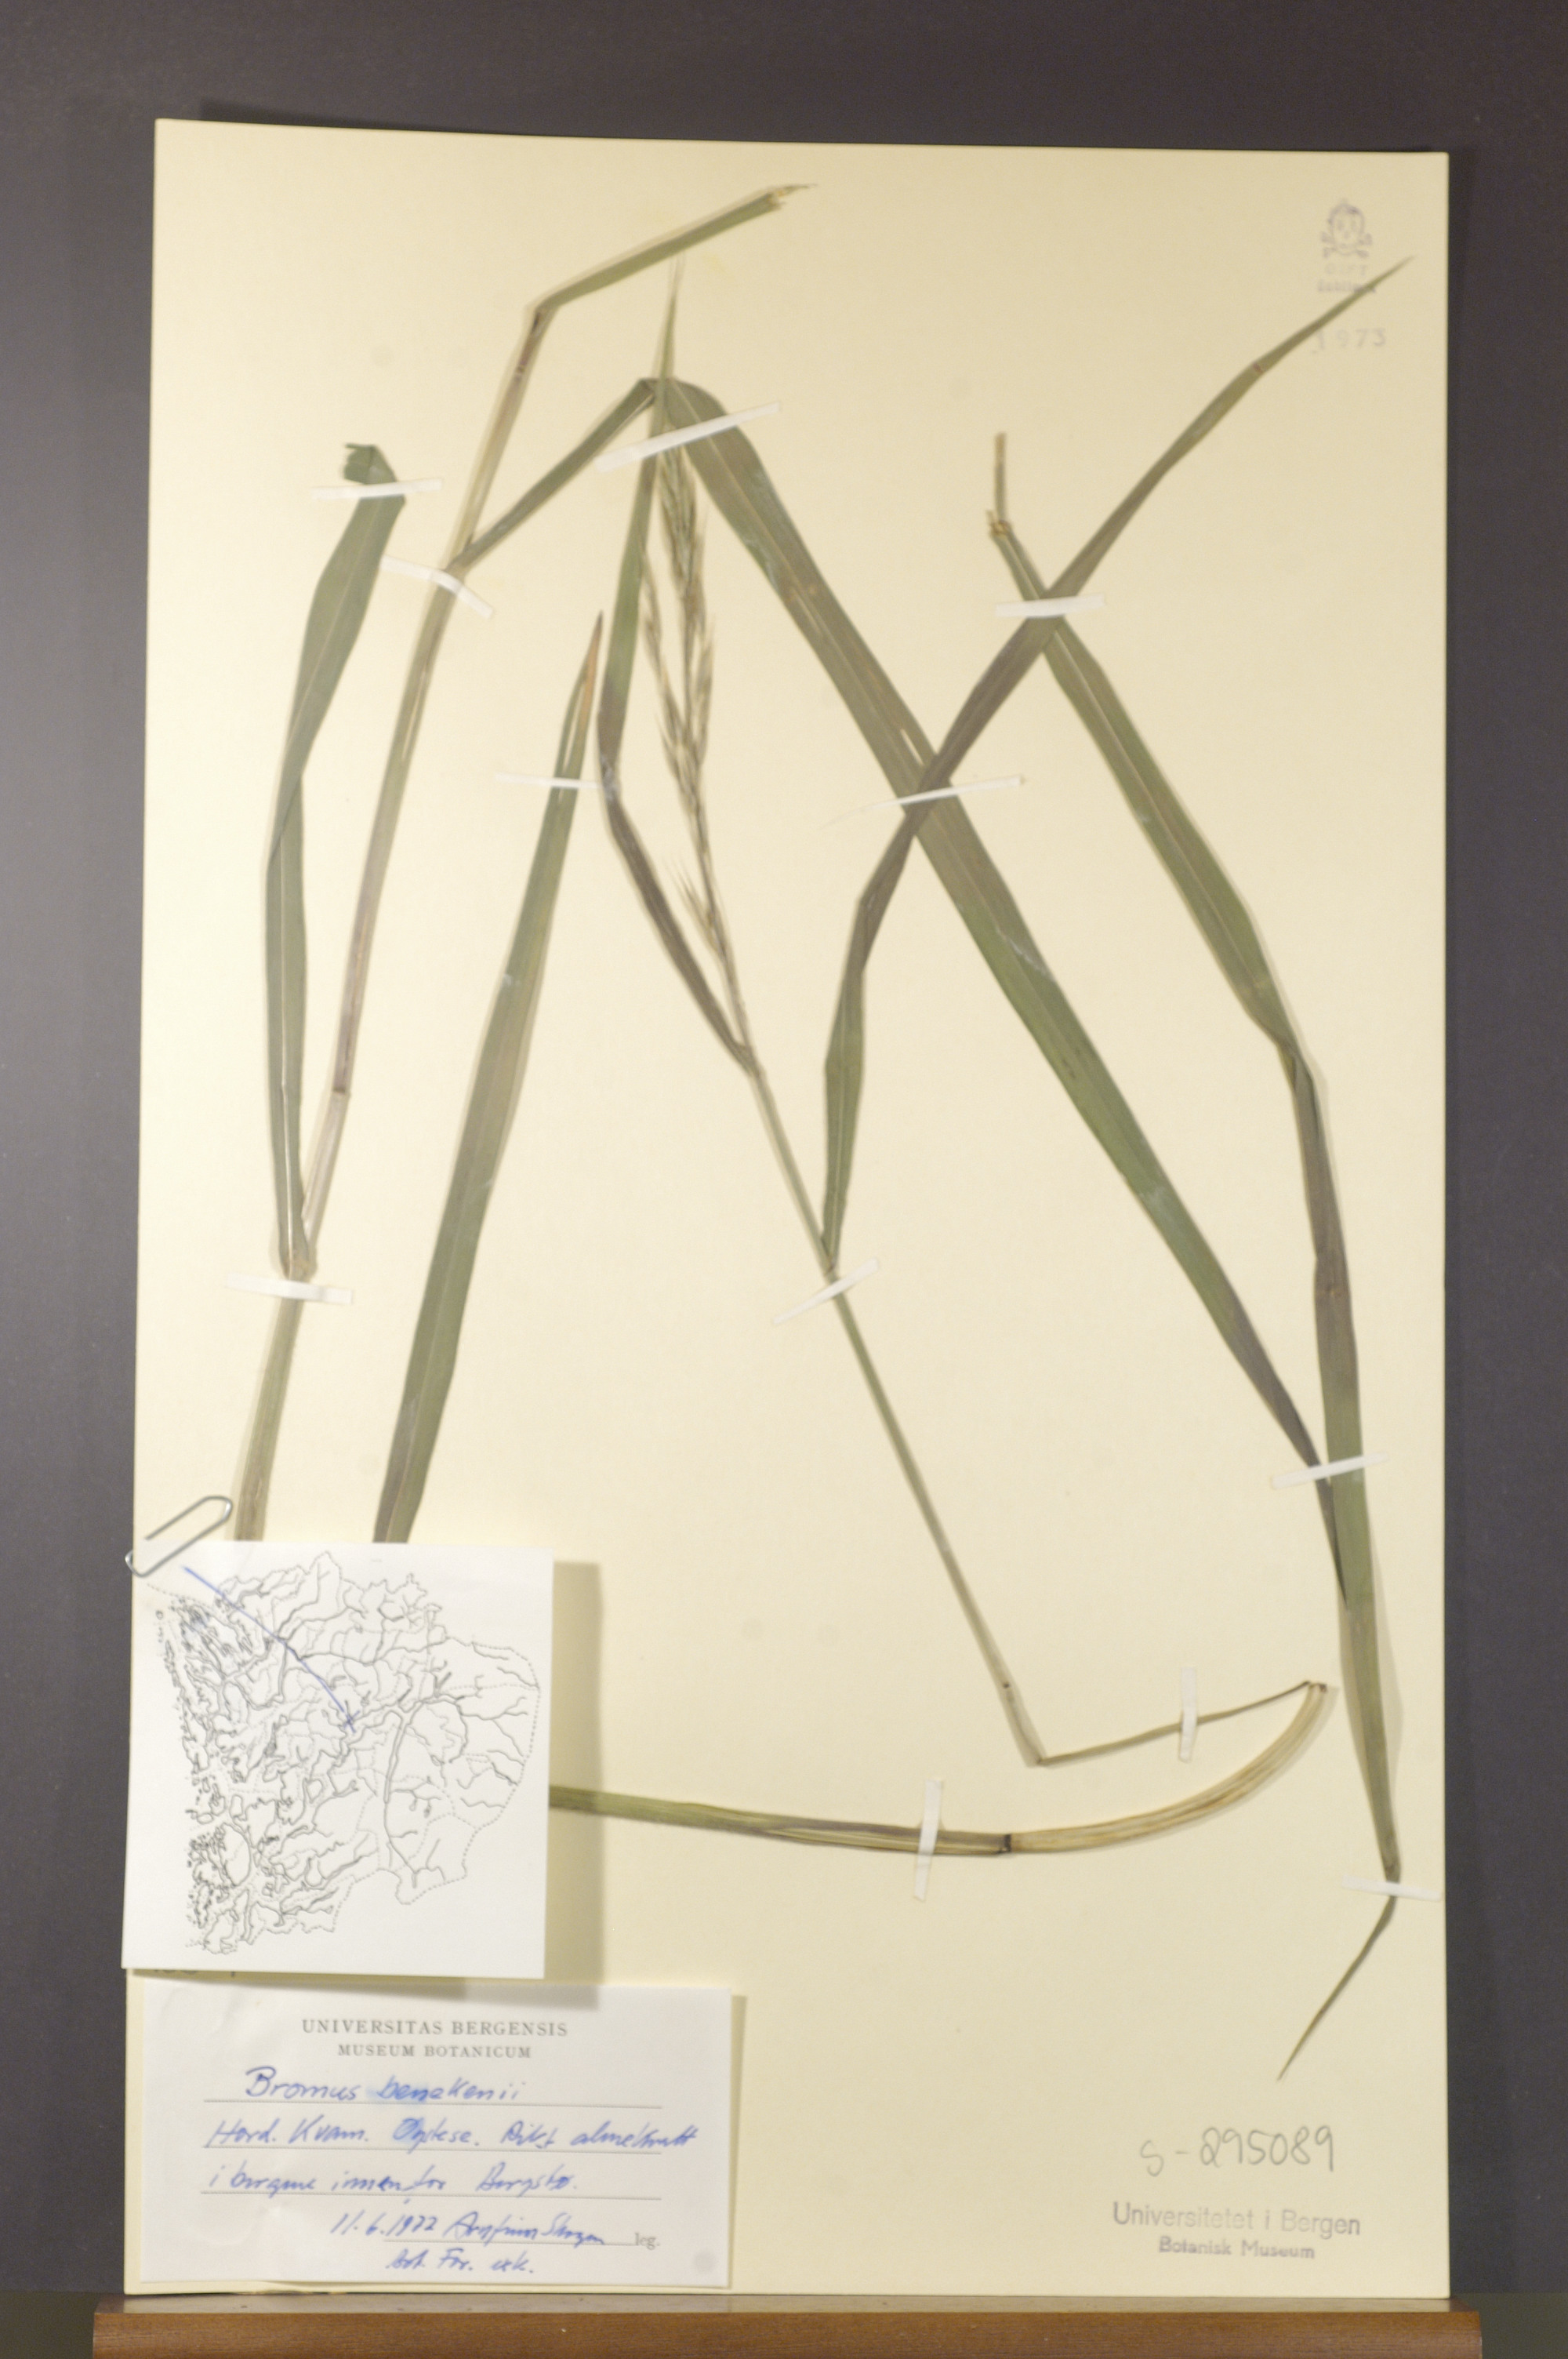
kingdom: Plantae
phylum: Tracheophyta
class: Liliopsida
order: Poales
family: Poaceae
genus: Bromus
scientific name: Bromus benekenii
